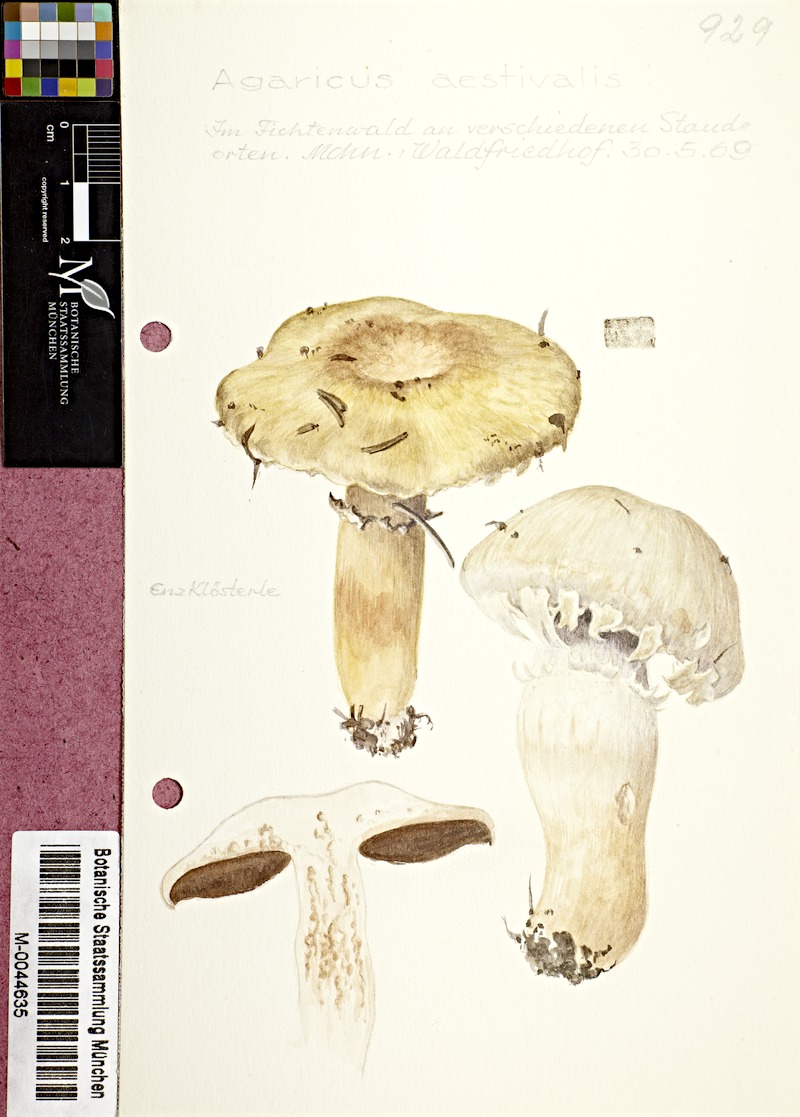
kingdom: Fungi
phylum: Basidiomycota
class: Agaricomycetes
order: Agaricales
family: Agaricaceae
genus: Agaricus
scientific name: Agaricus altipes
